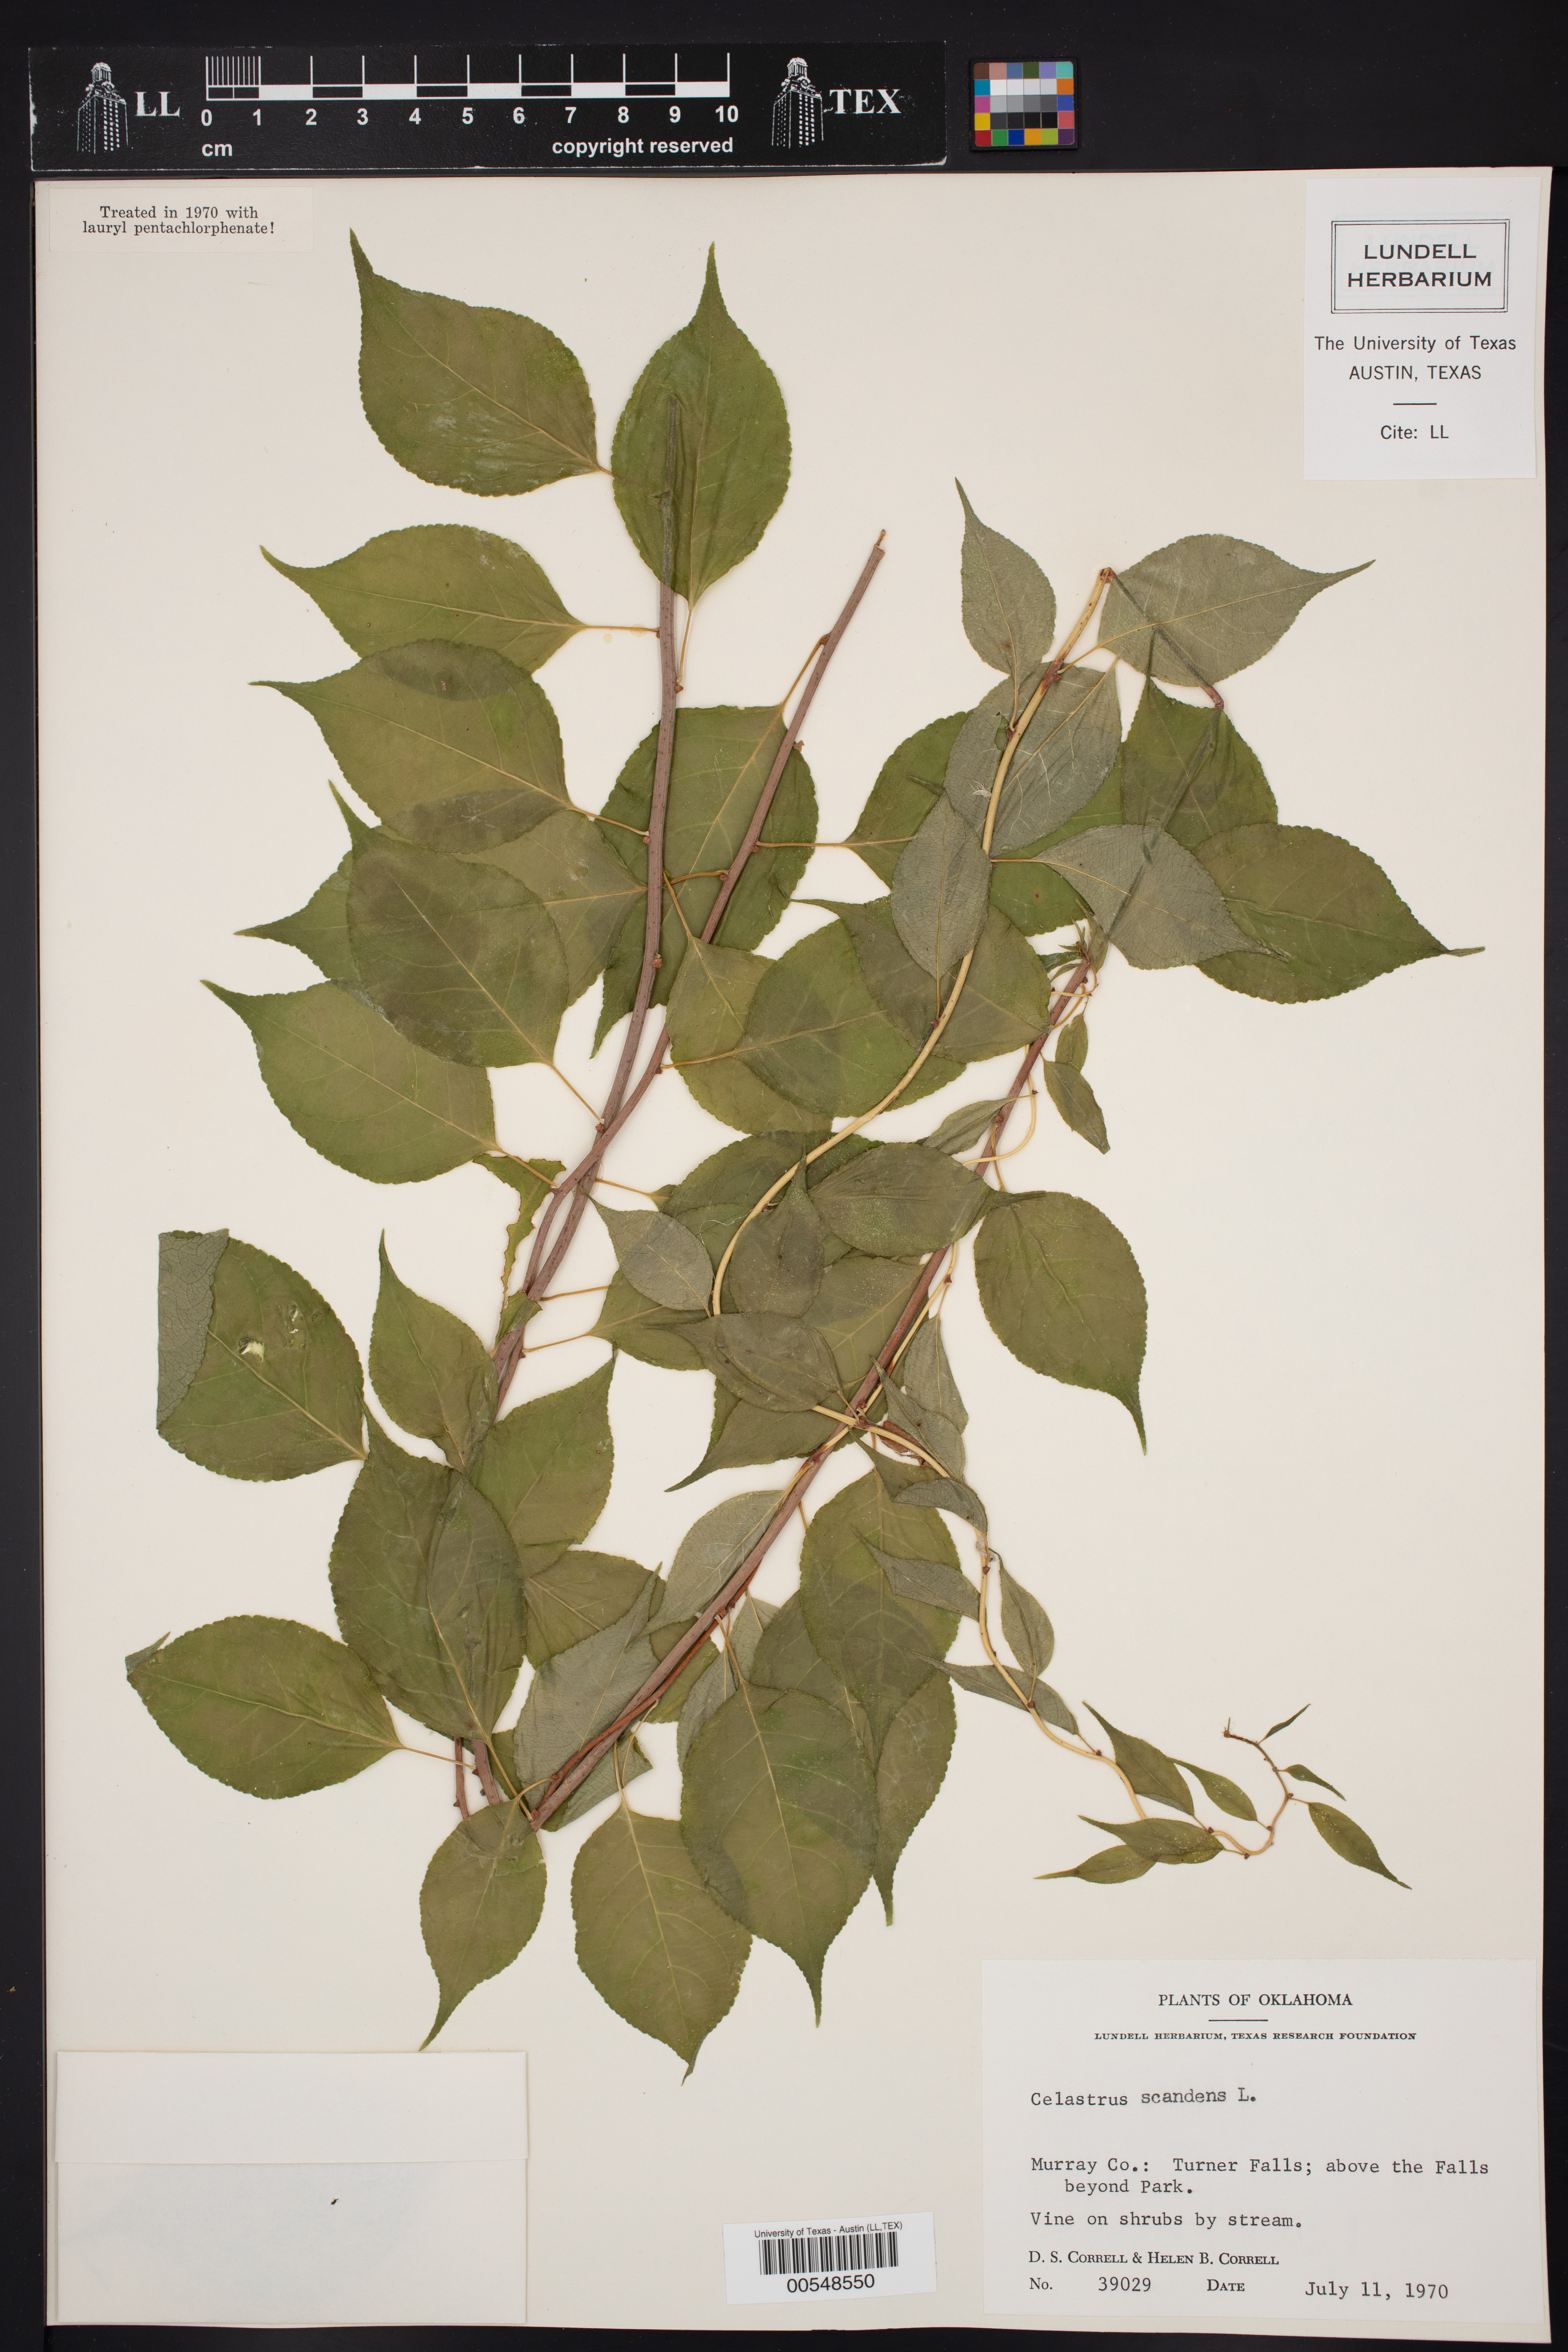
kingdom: Plantae
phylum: Tracheophyta
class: Magnoliopsida
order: Celastrales
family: Celastraceae
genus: Celastrus
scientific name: Celastrus scandens
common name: American bittersweet
